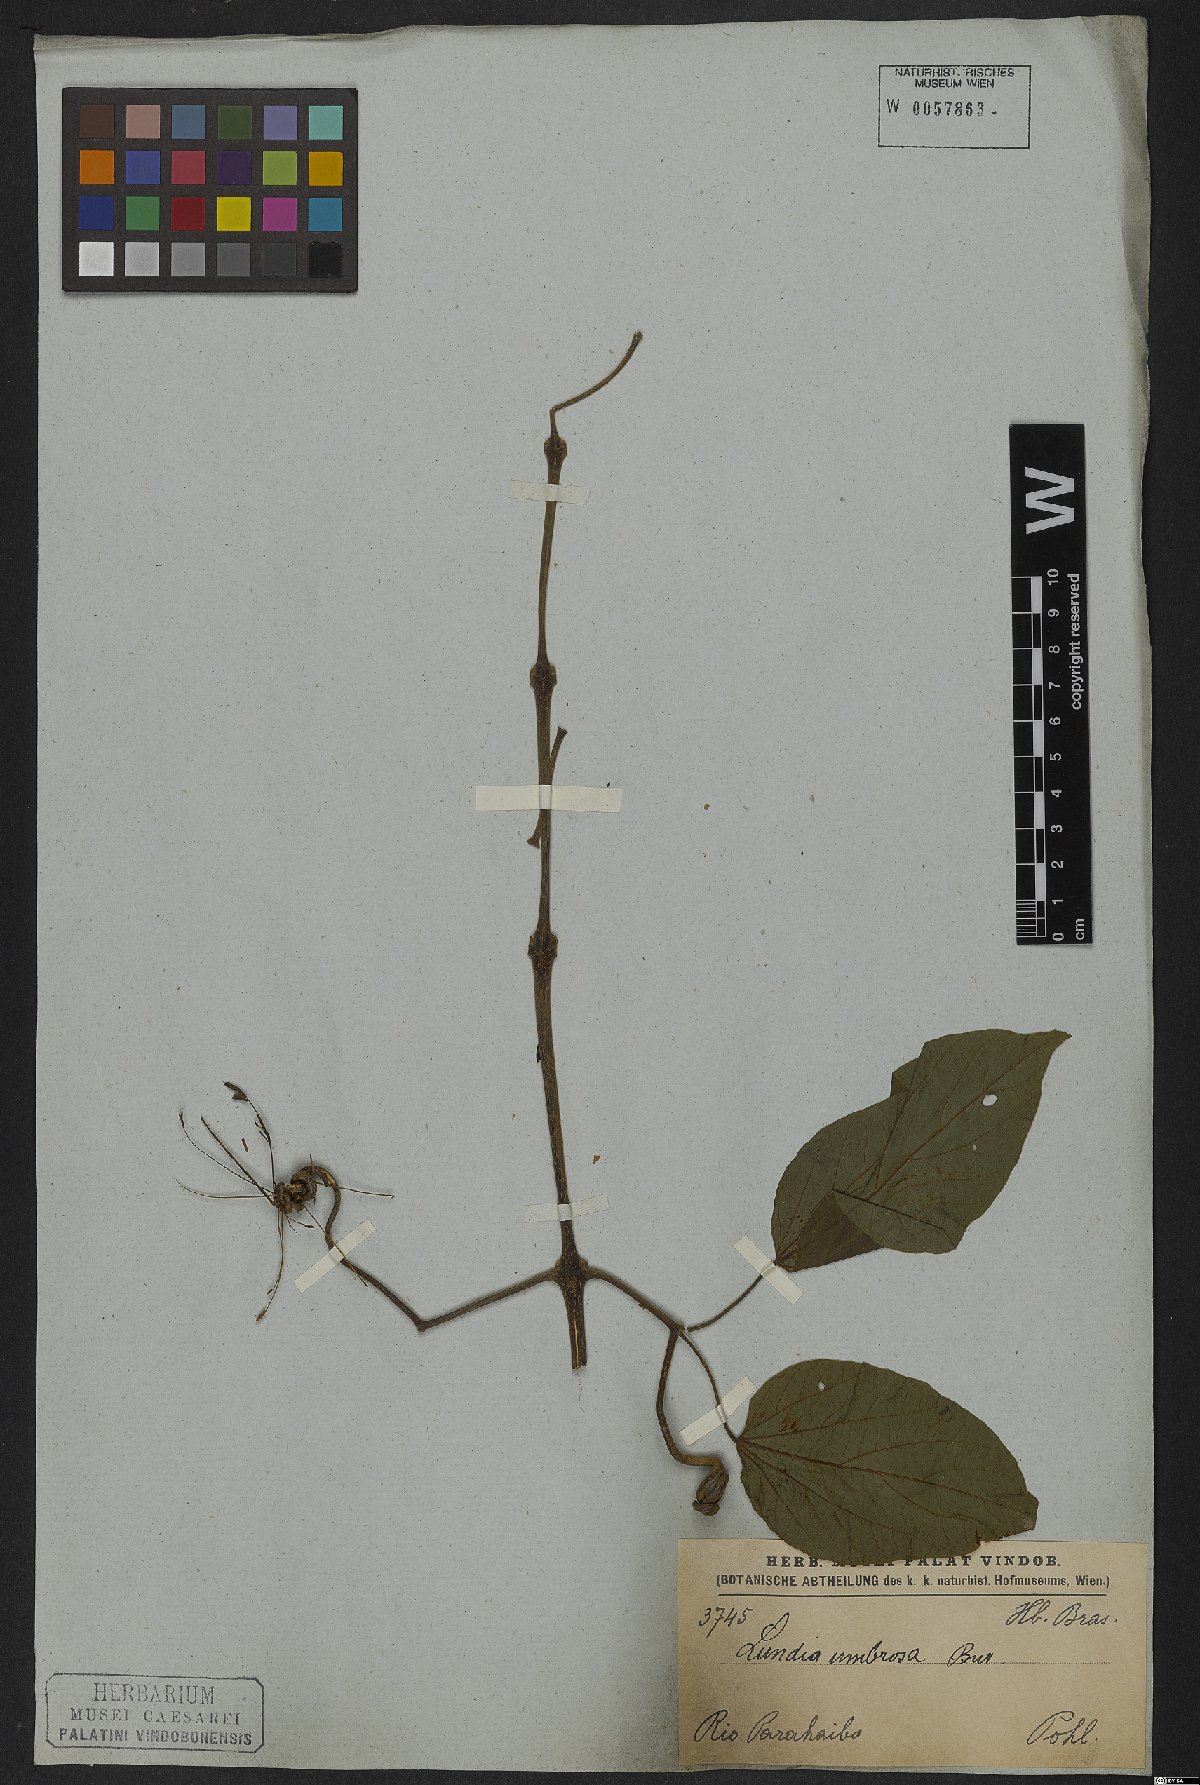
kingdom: Plantae
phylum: Tracheophyta
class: Magnoliopsida
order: Lamiales
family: Bignoniaceae
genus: Lundia
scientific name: Lundia corymbifera
